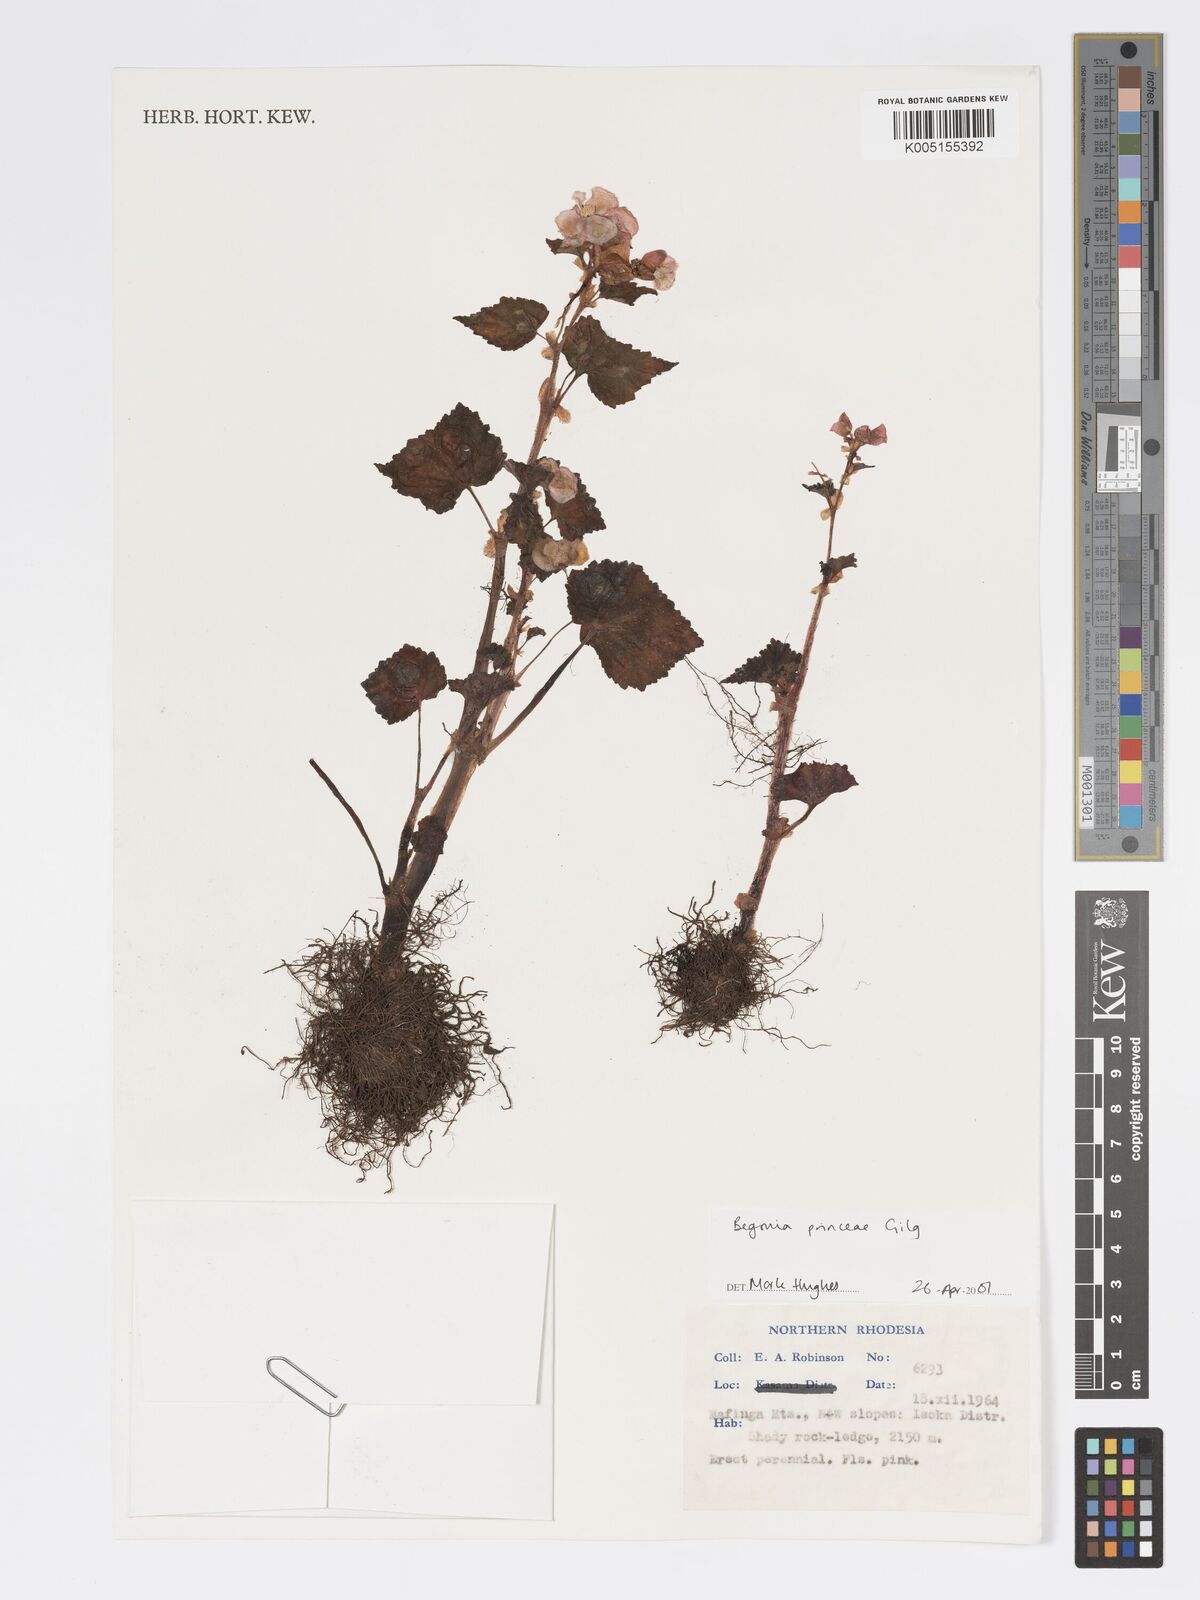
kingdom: Plantae
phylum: Tracheophyta
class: Magnoliopsida
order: Cucurbitales
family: Begoniaceae
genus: Begonia
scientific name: Begonia
